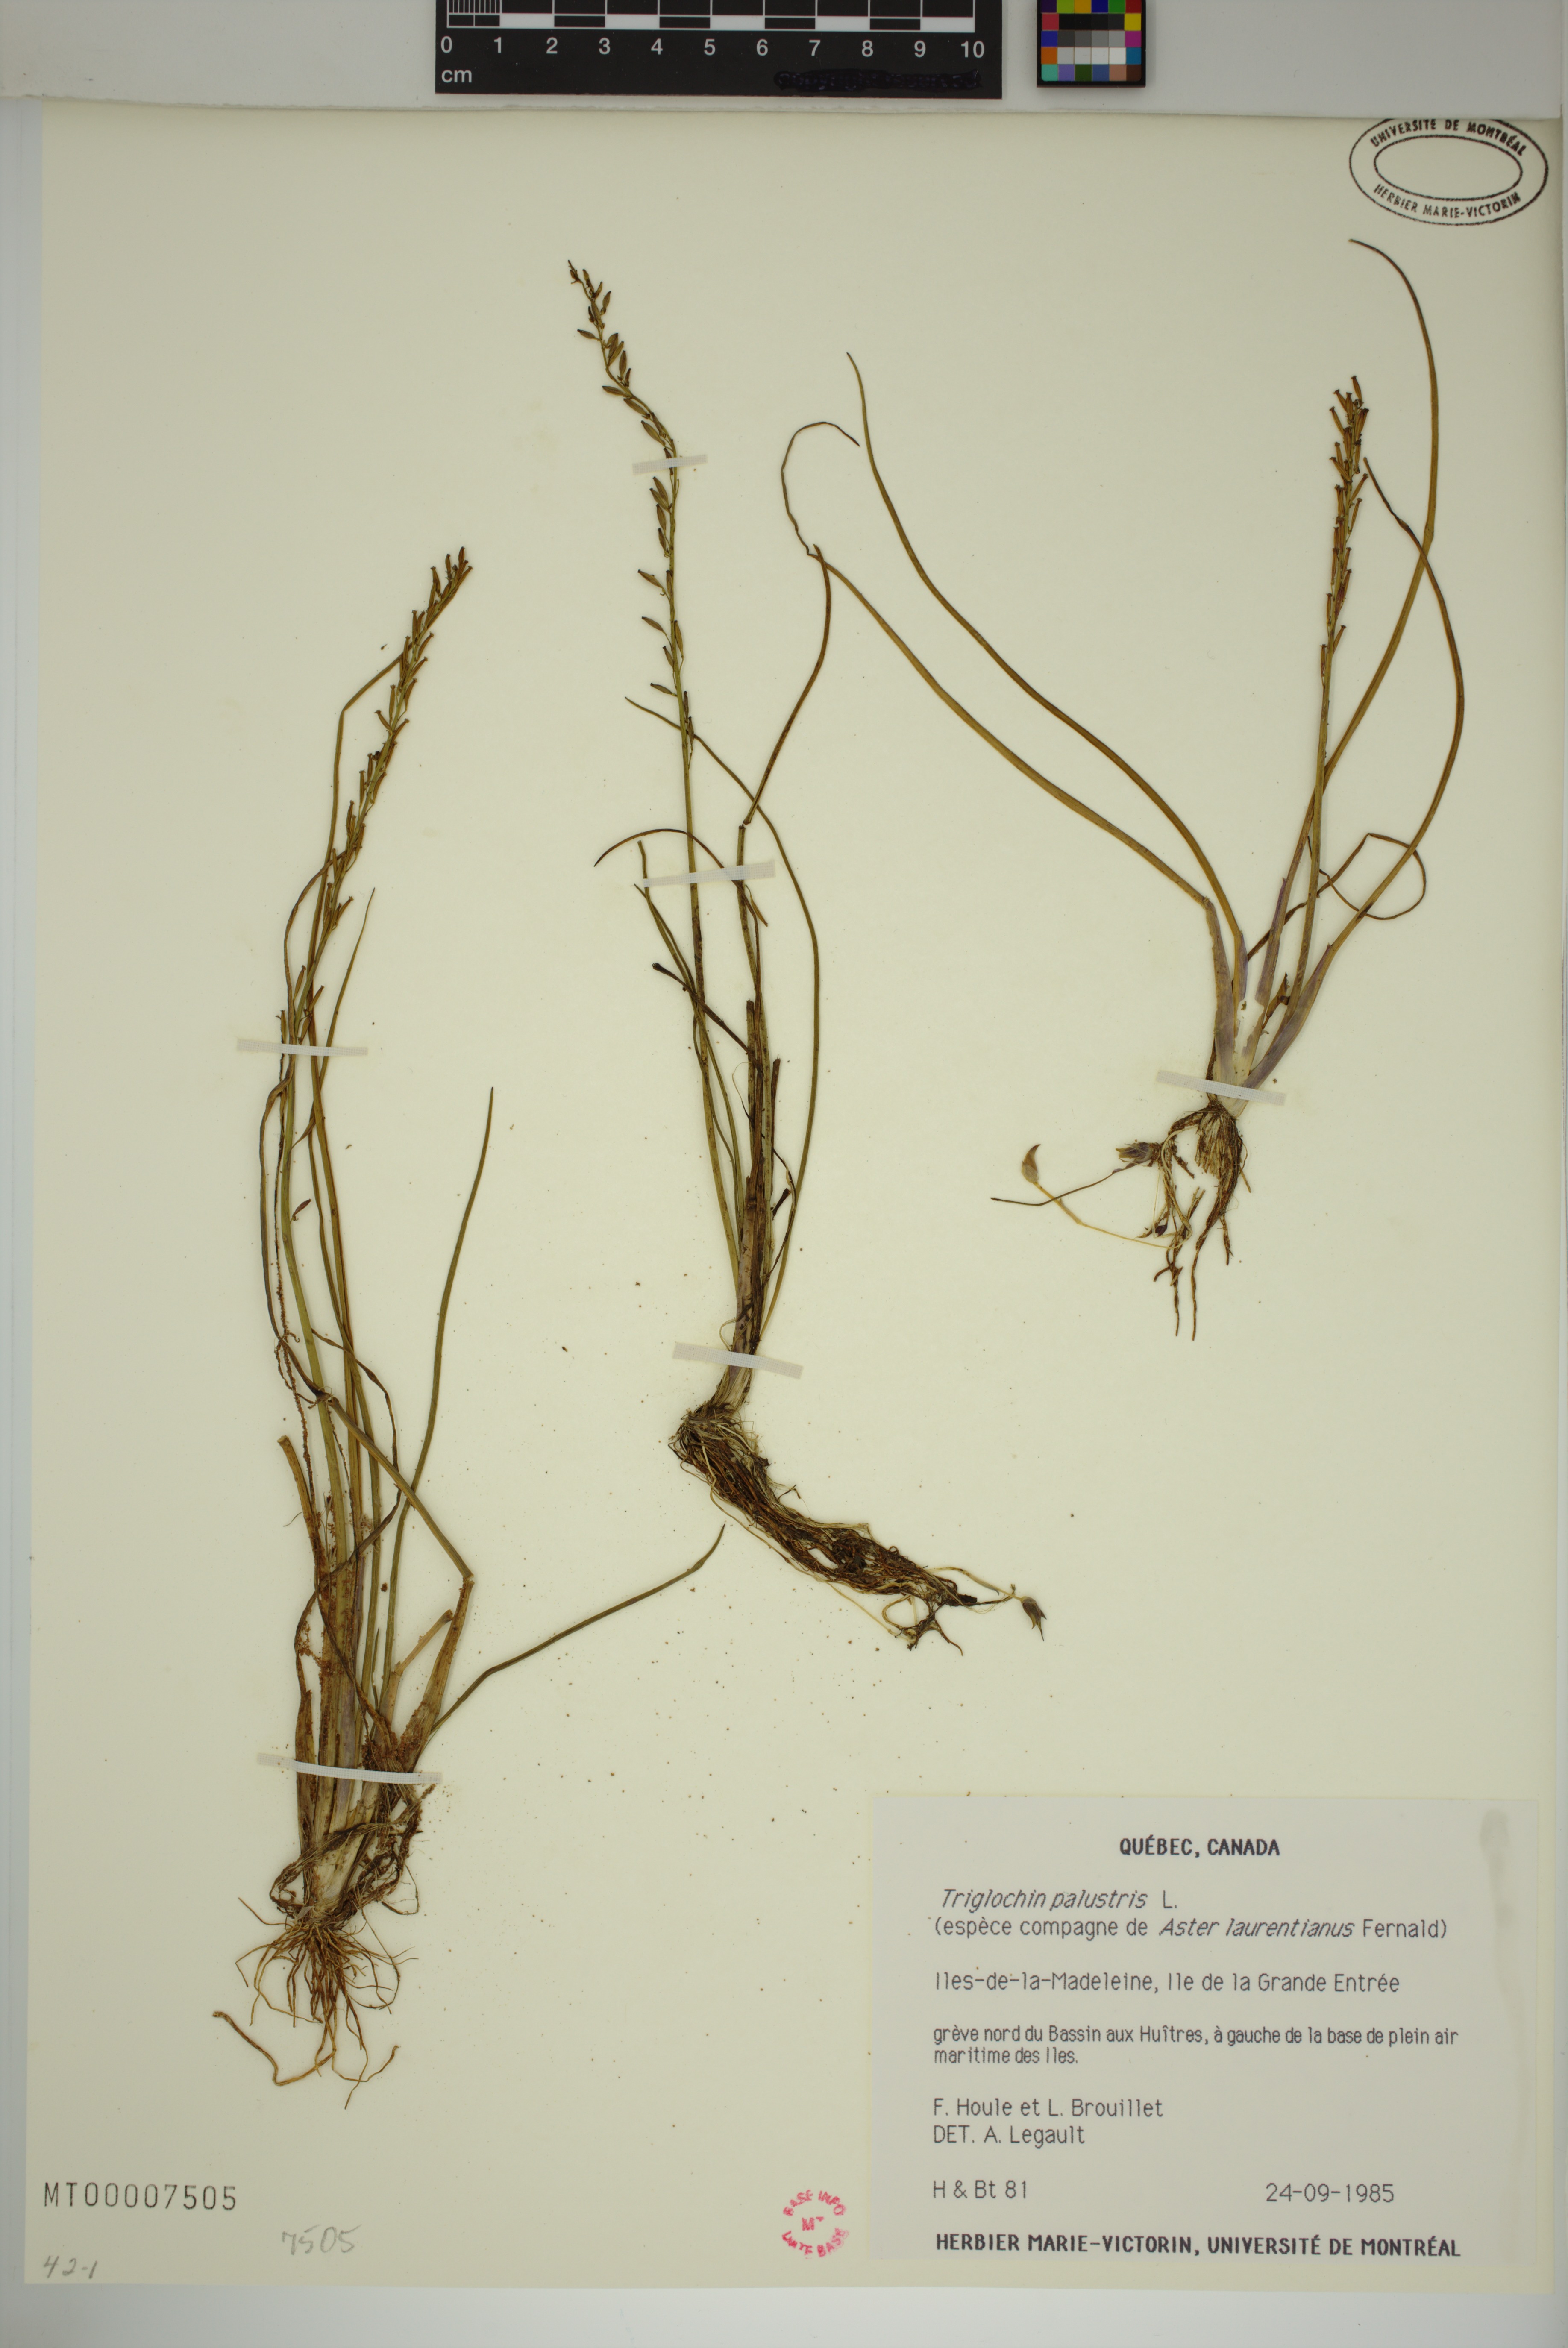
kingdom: Plantae
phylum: Tracheophyta
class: Liliopsida
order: Alismatales
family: Juncaginaceae
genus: Triglochin
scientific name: Triglochin palustris
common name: Marsh arrowgrass
